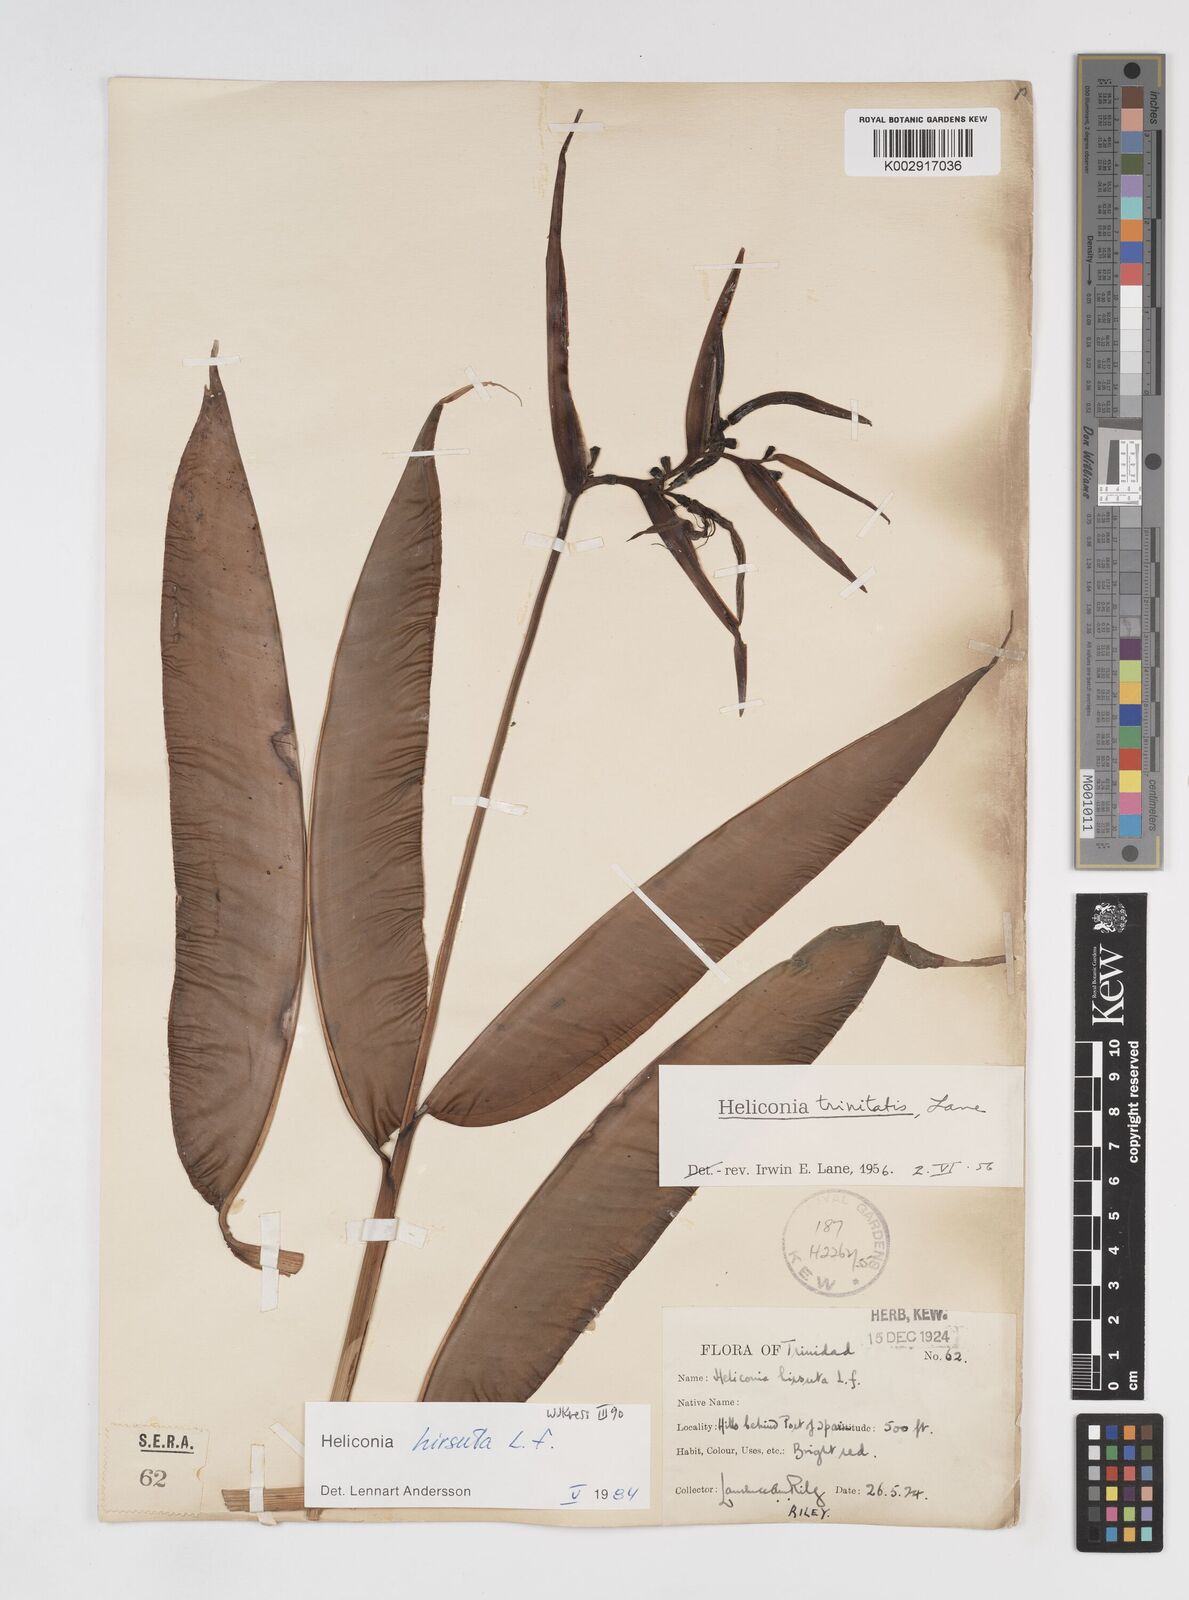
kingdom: Plantae
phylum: Tracheophyta
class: Liliopsida
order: Zingiberales
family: Heliconiaceae
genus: Heliconia
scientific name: Heliconia hirsuta
